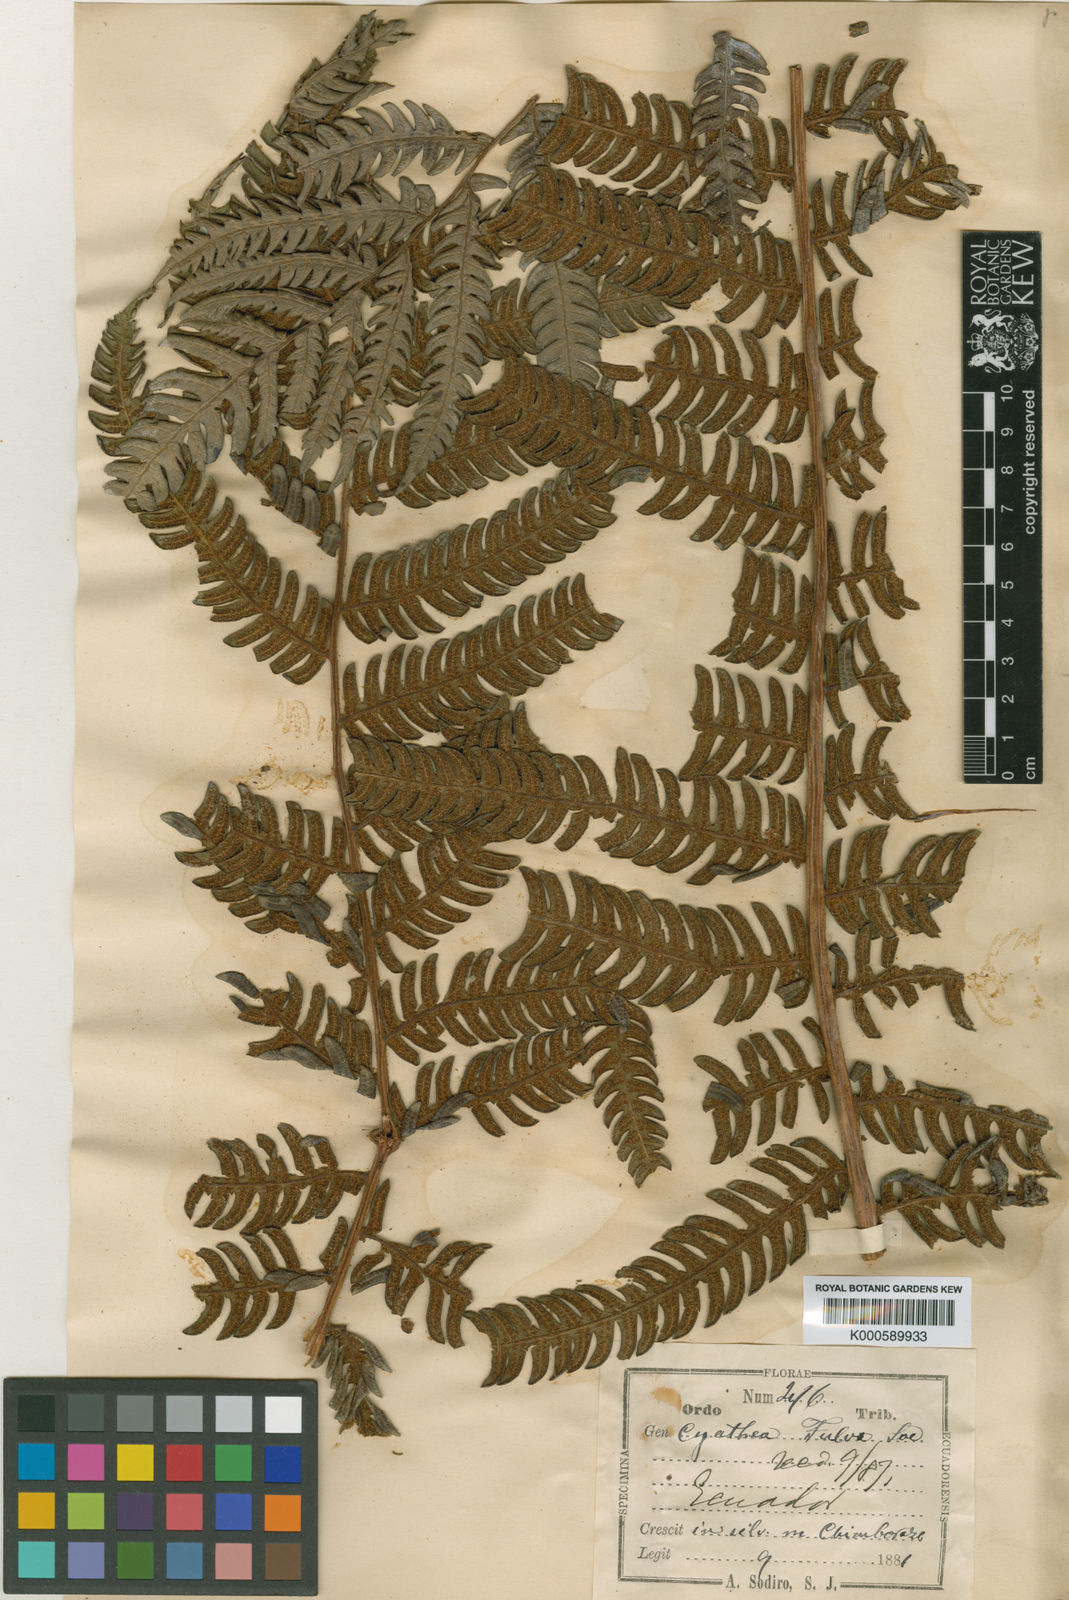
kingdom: Plantae
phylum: Tracheophyta
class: Polypodiopsida
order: Cyatheales
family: Cyatheaceae
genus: Cyathea
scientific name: Cyathea caracasana
